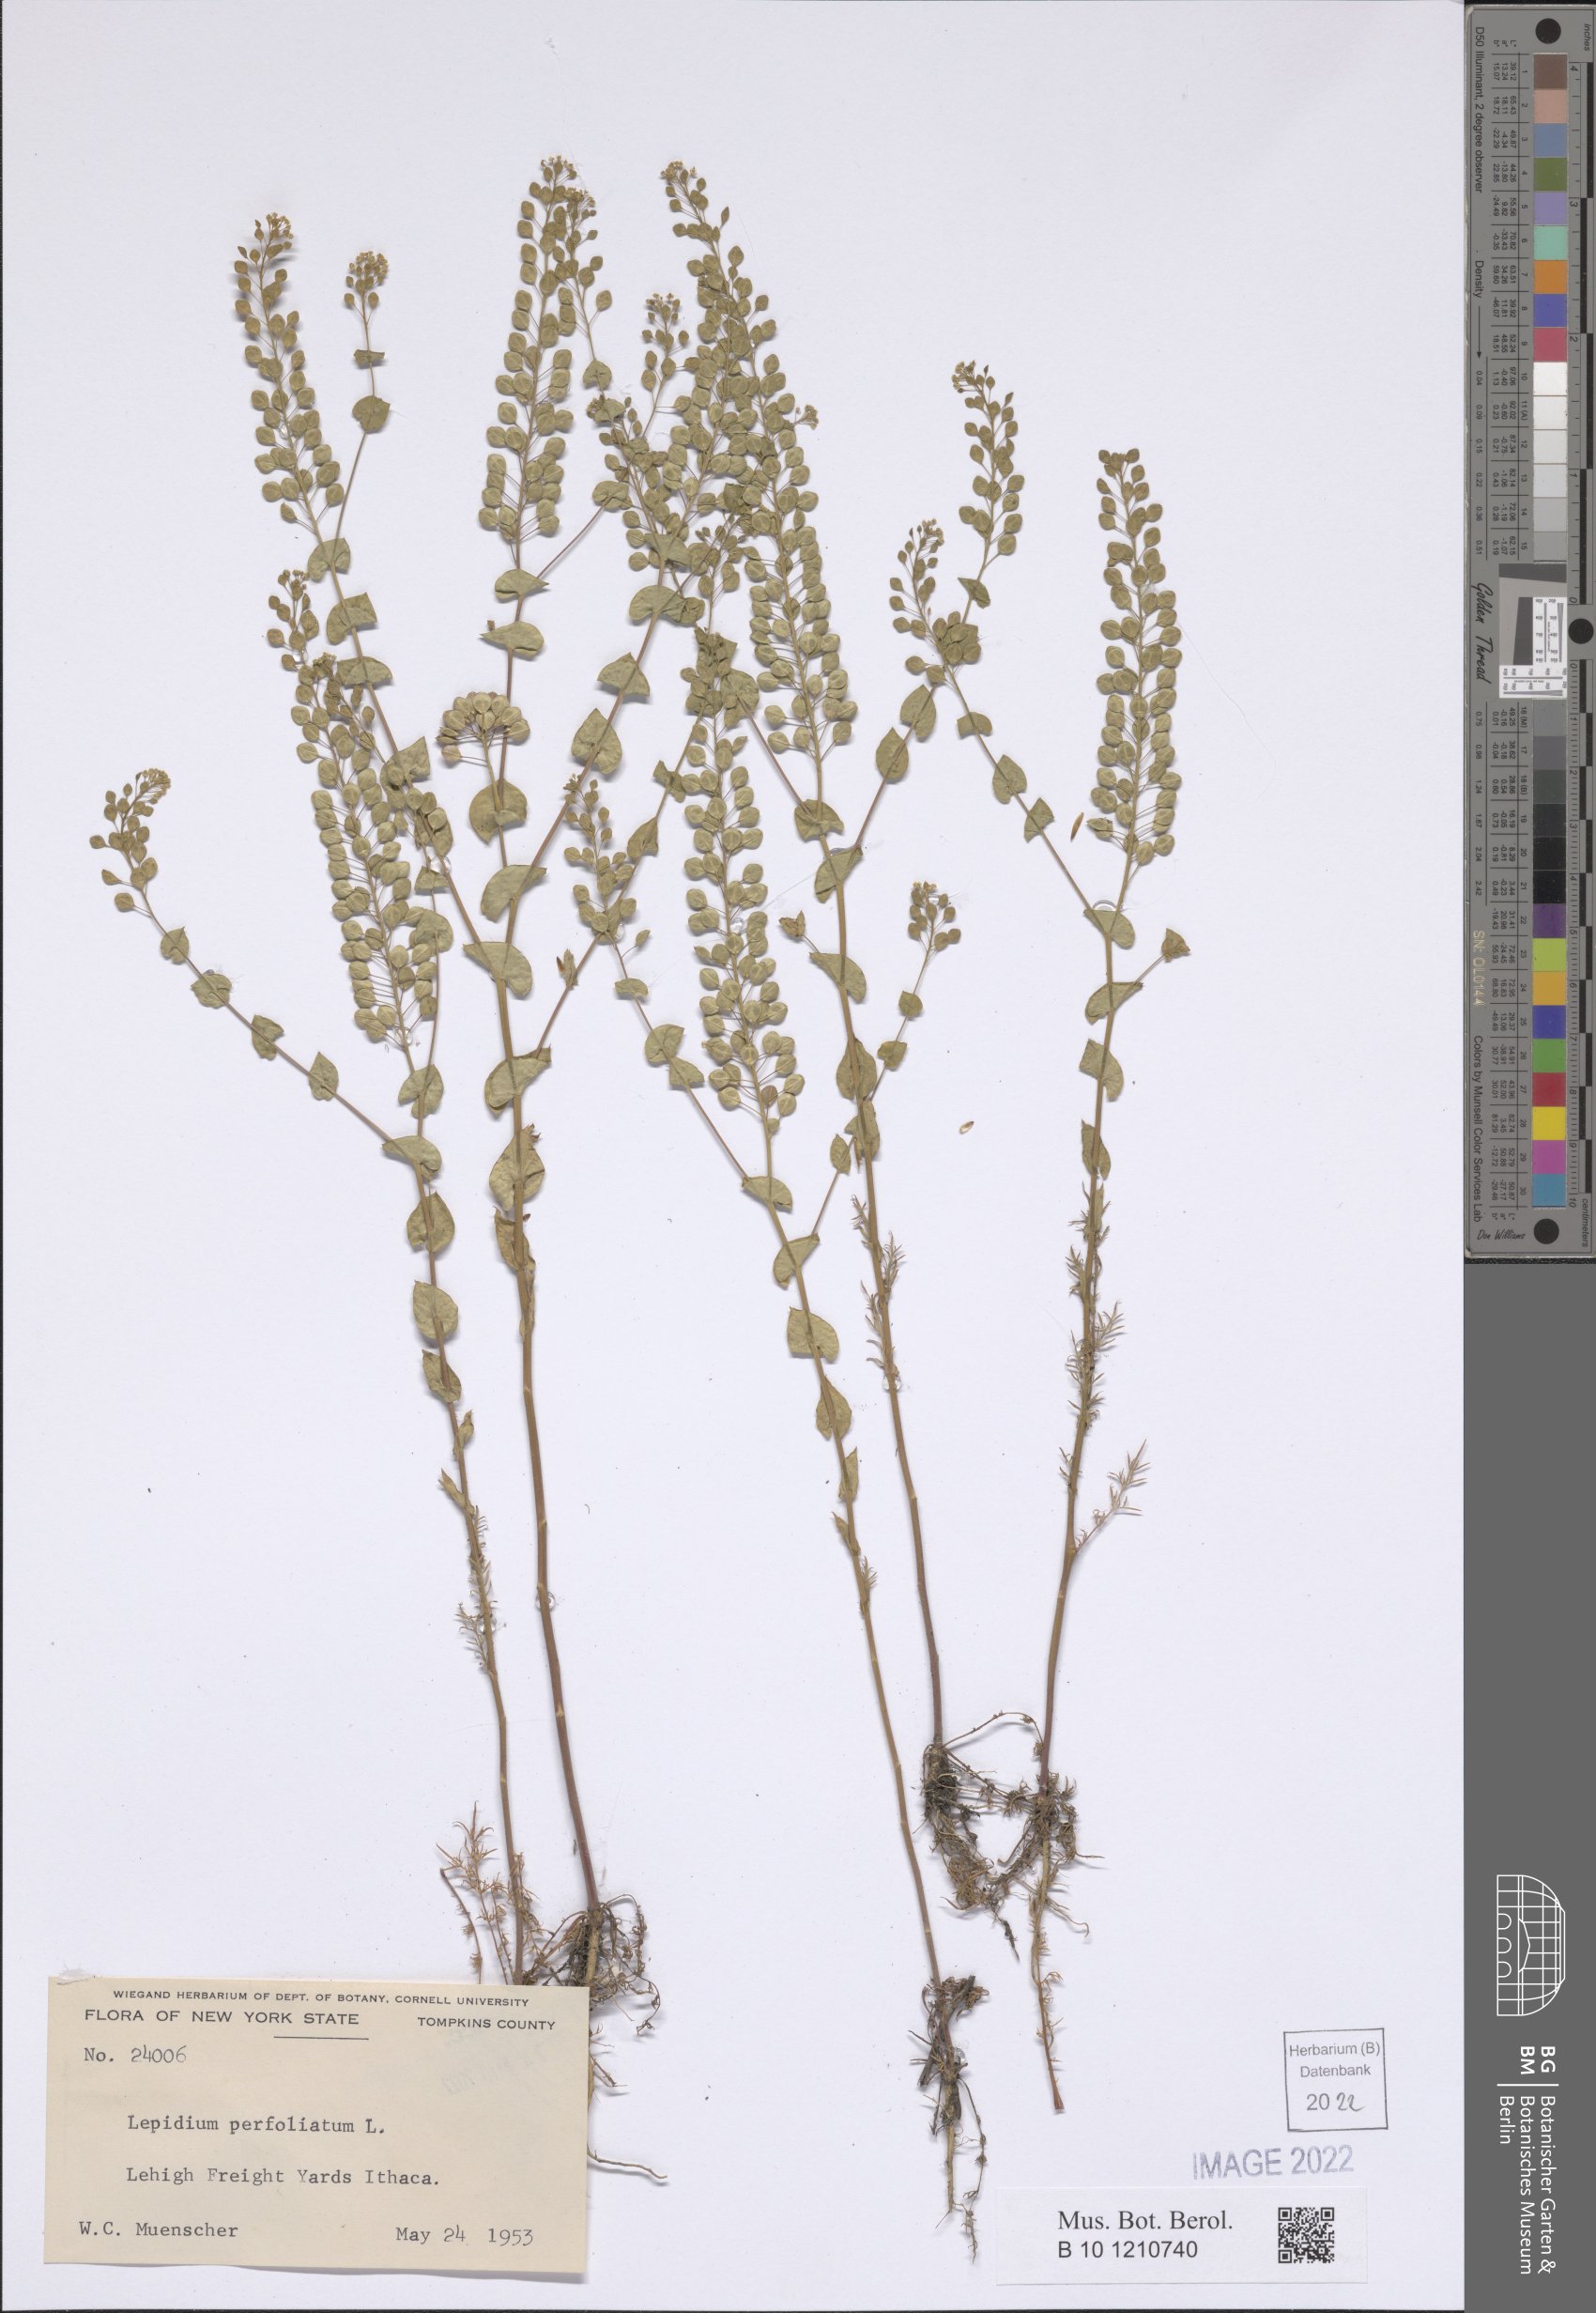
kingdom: Plantae
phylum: Tracheophyta
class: Magnoliopsida
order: Brassicales
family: Brassicaceae
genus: Lepidium
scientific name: Lepidium perfoliatum
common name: Perfoliate pepperwort
